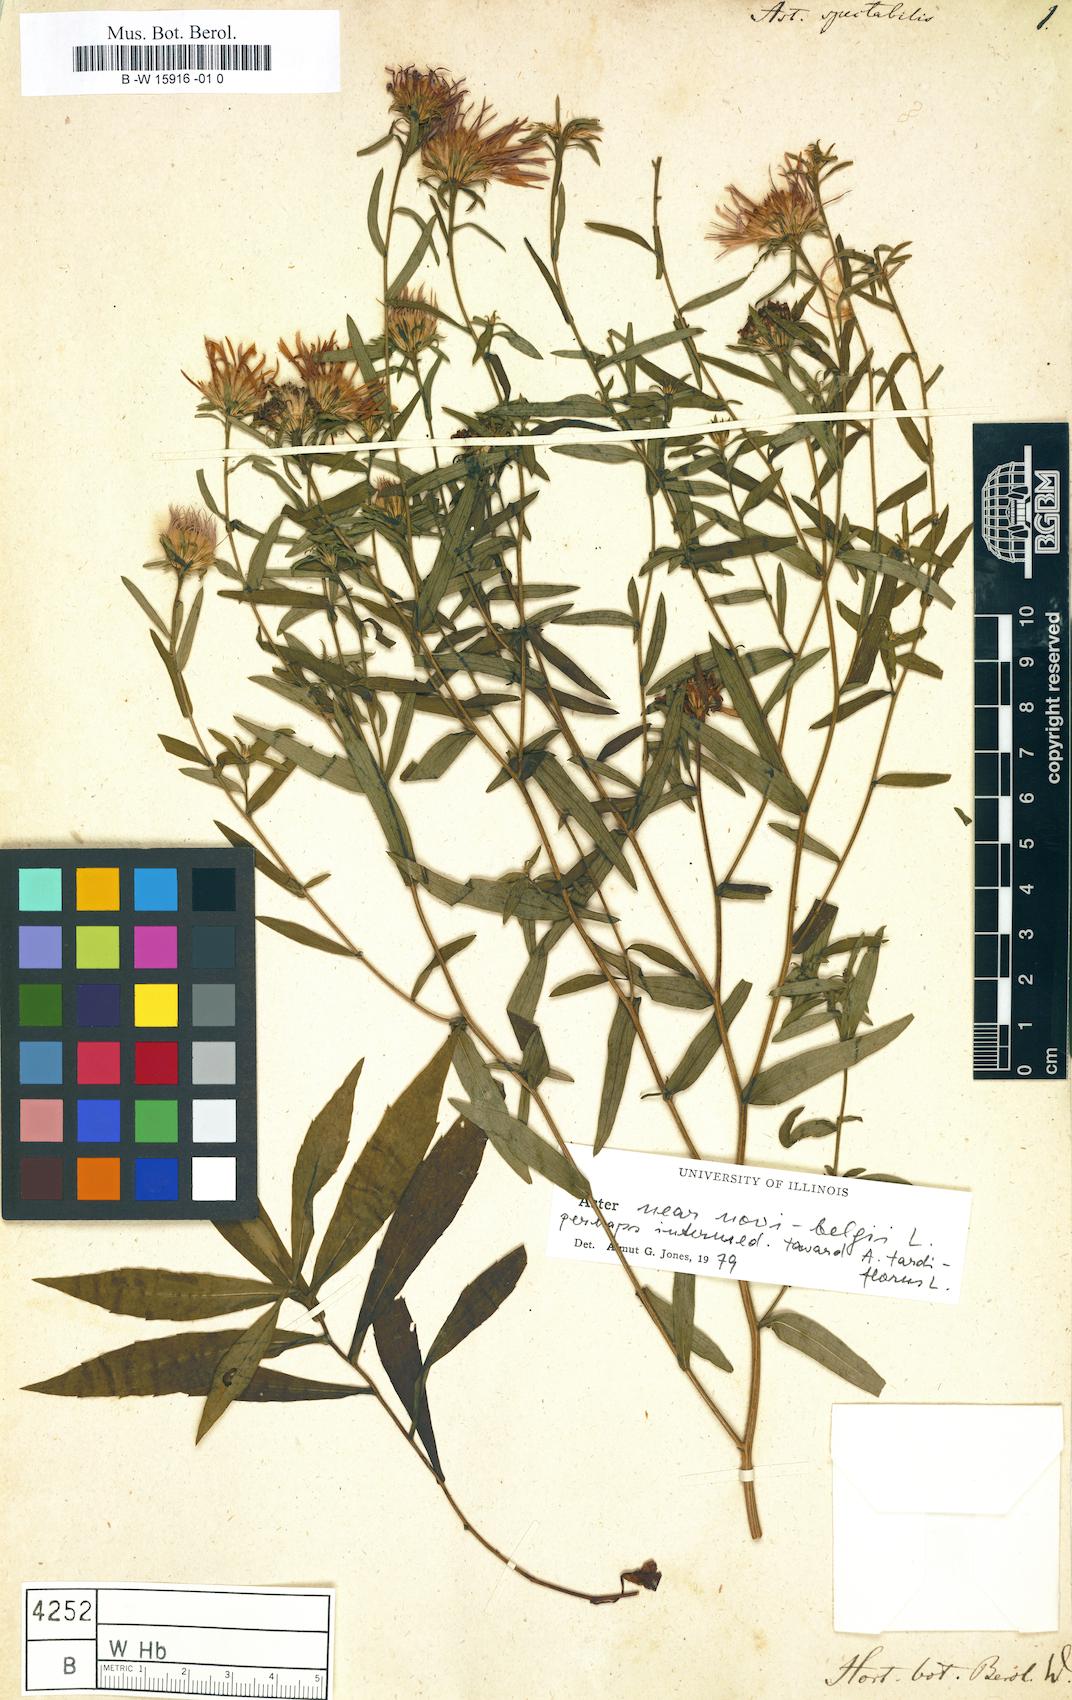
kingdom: Plantae
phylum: Tracheophyta
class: Magnoliopsida
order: Asterales
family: Asteraceae
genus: Aster
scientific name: Aster spectabilis
